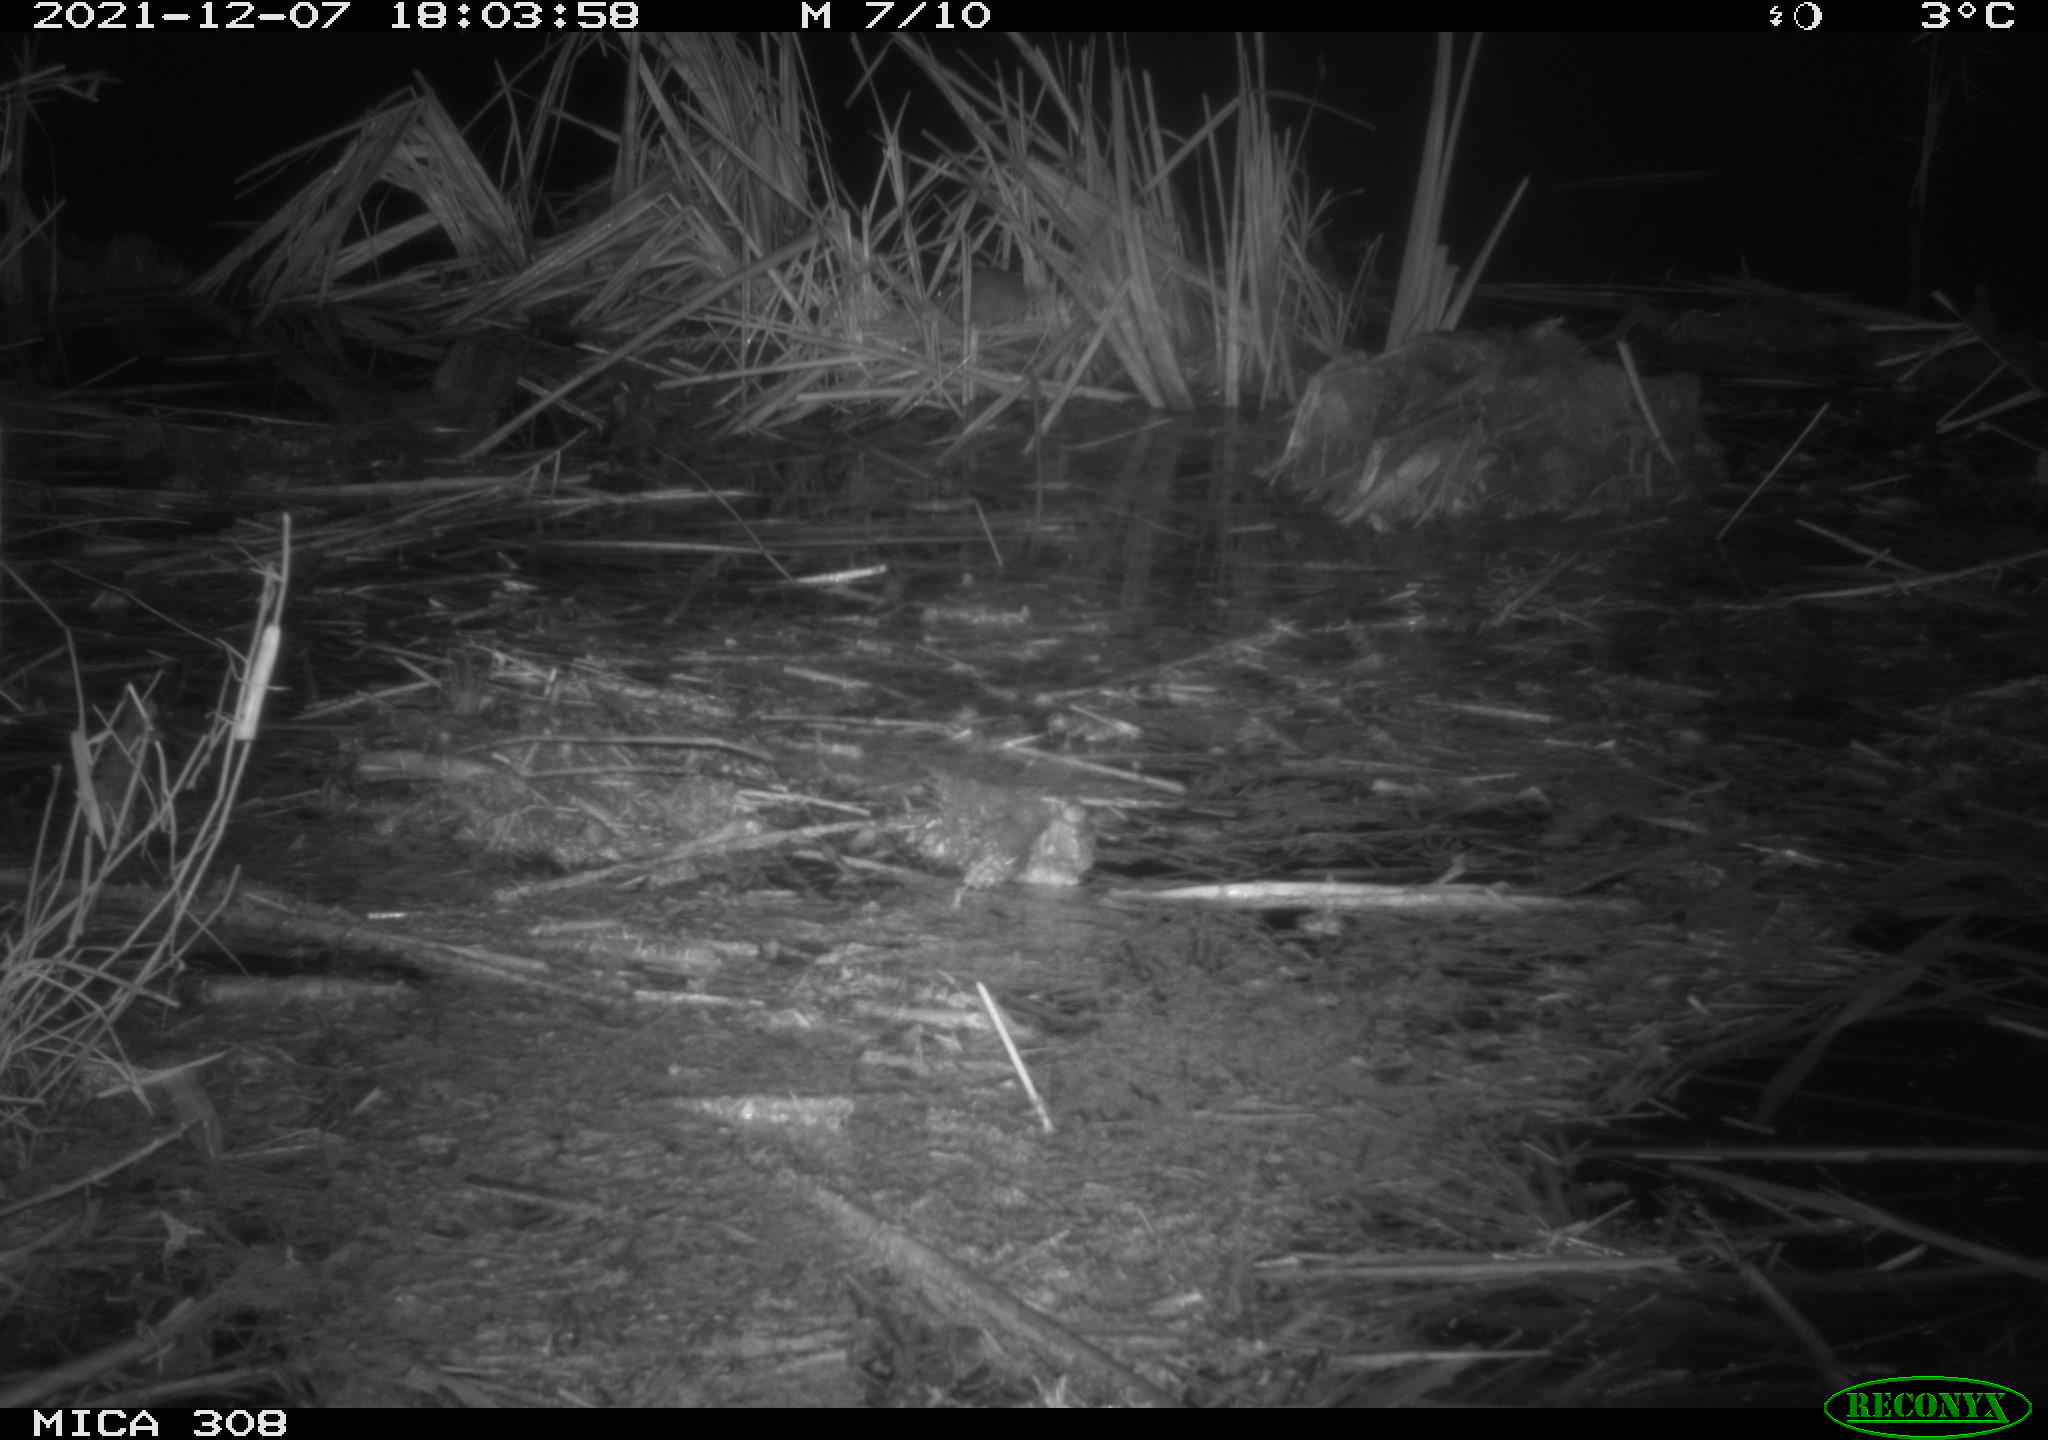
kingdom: Animalia
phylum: Chordata
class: Mammalia
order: Rodentia
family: Muridae
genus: Rattus
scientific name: Rattus norvegicus
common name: Brown rat
